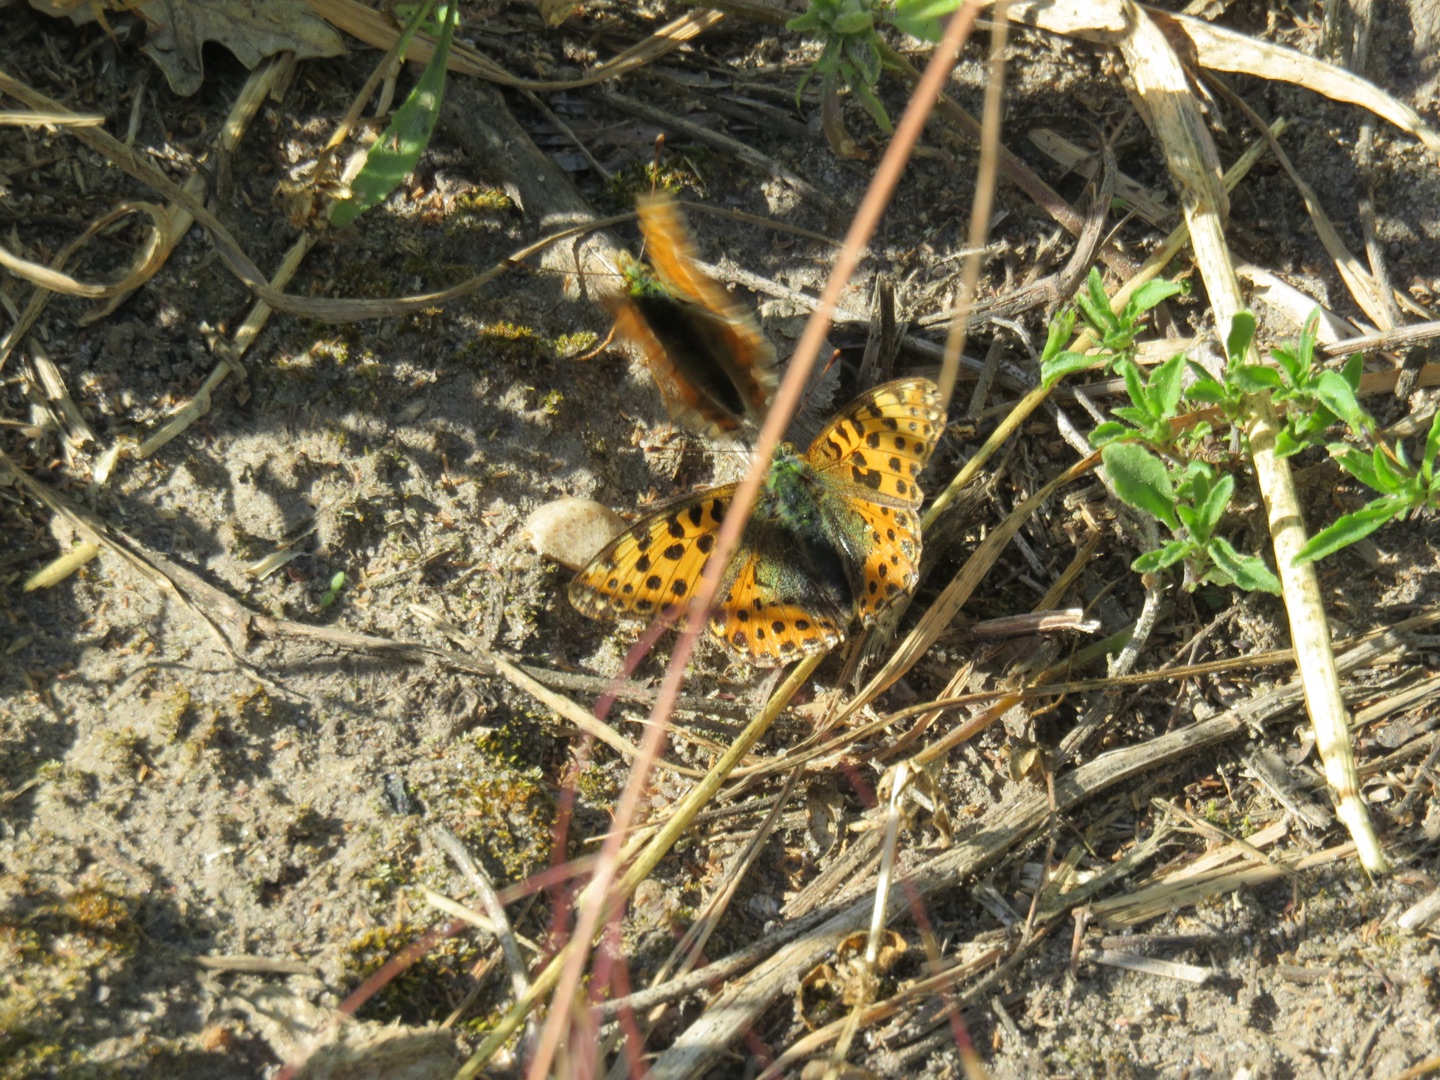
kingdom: Animalia
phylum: Arthropoda
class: Insecta
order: Lepidoptera
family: Nymphalidae
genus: Issoria
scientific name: Issoria lathonia
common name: Storplettet perlemorsommerfugl
